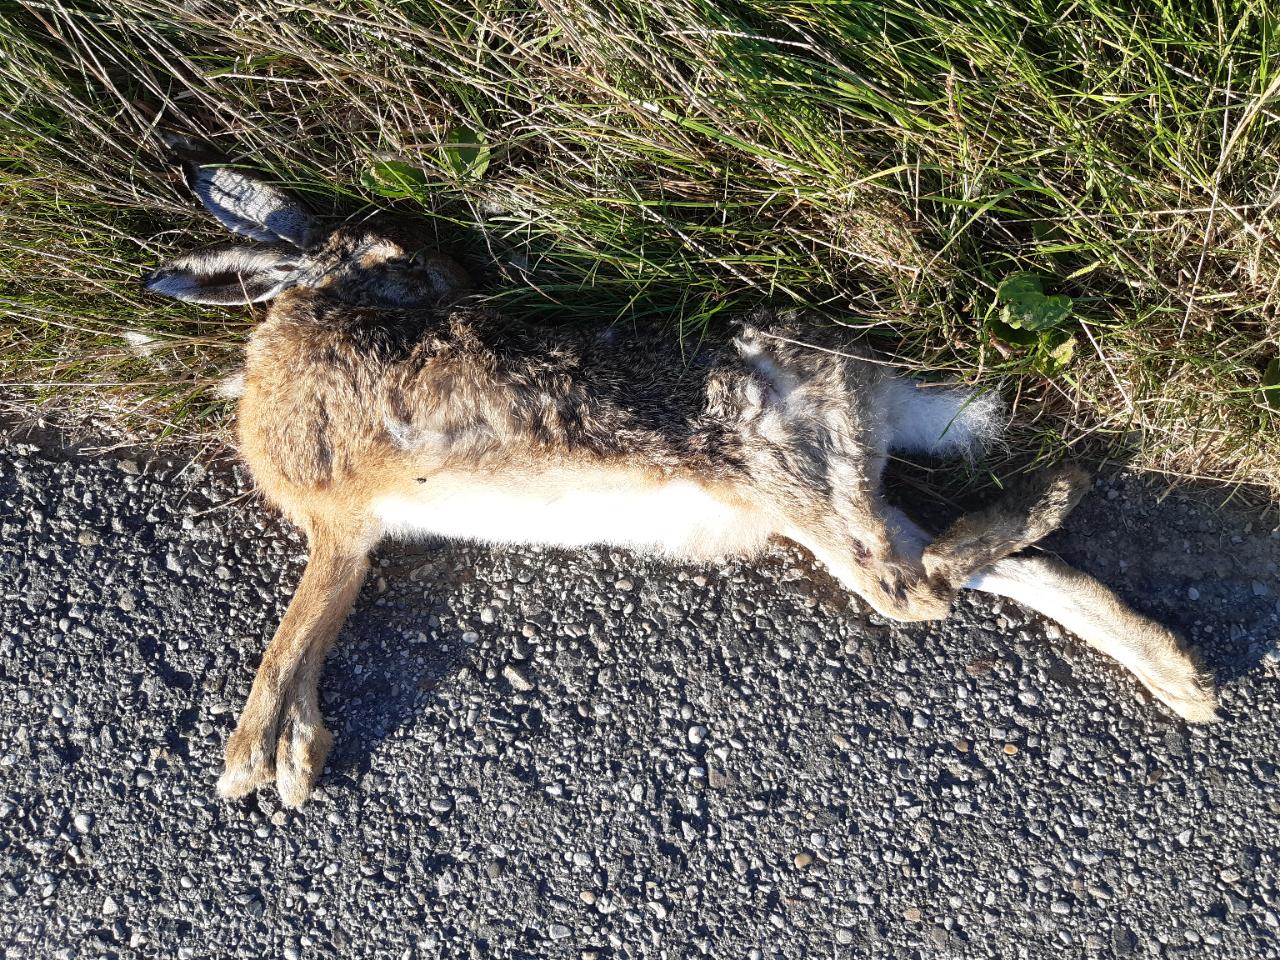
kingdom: Animalia
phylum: Chordata
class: Mammalia
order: Lagomorpha
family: Leporidae
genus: Lepus
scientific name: Lepus europaeus
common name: European hare
